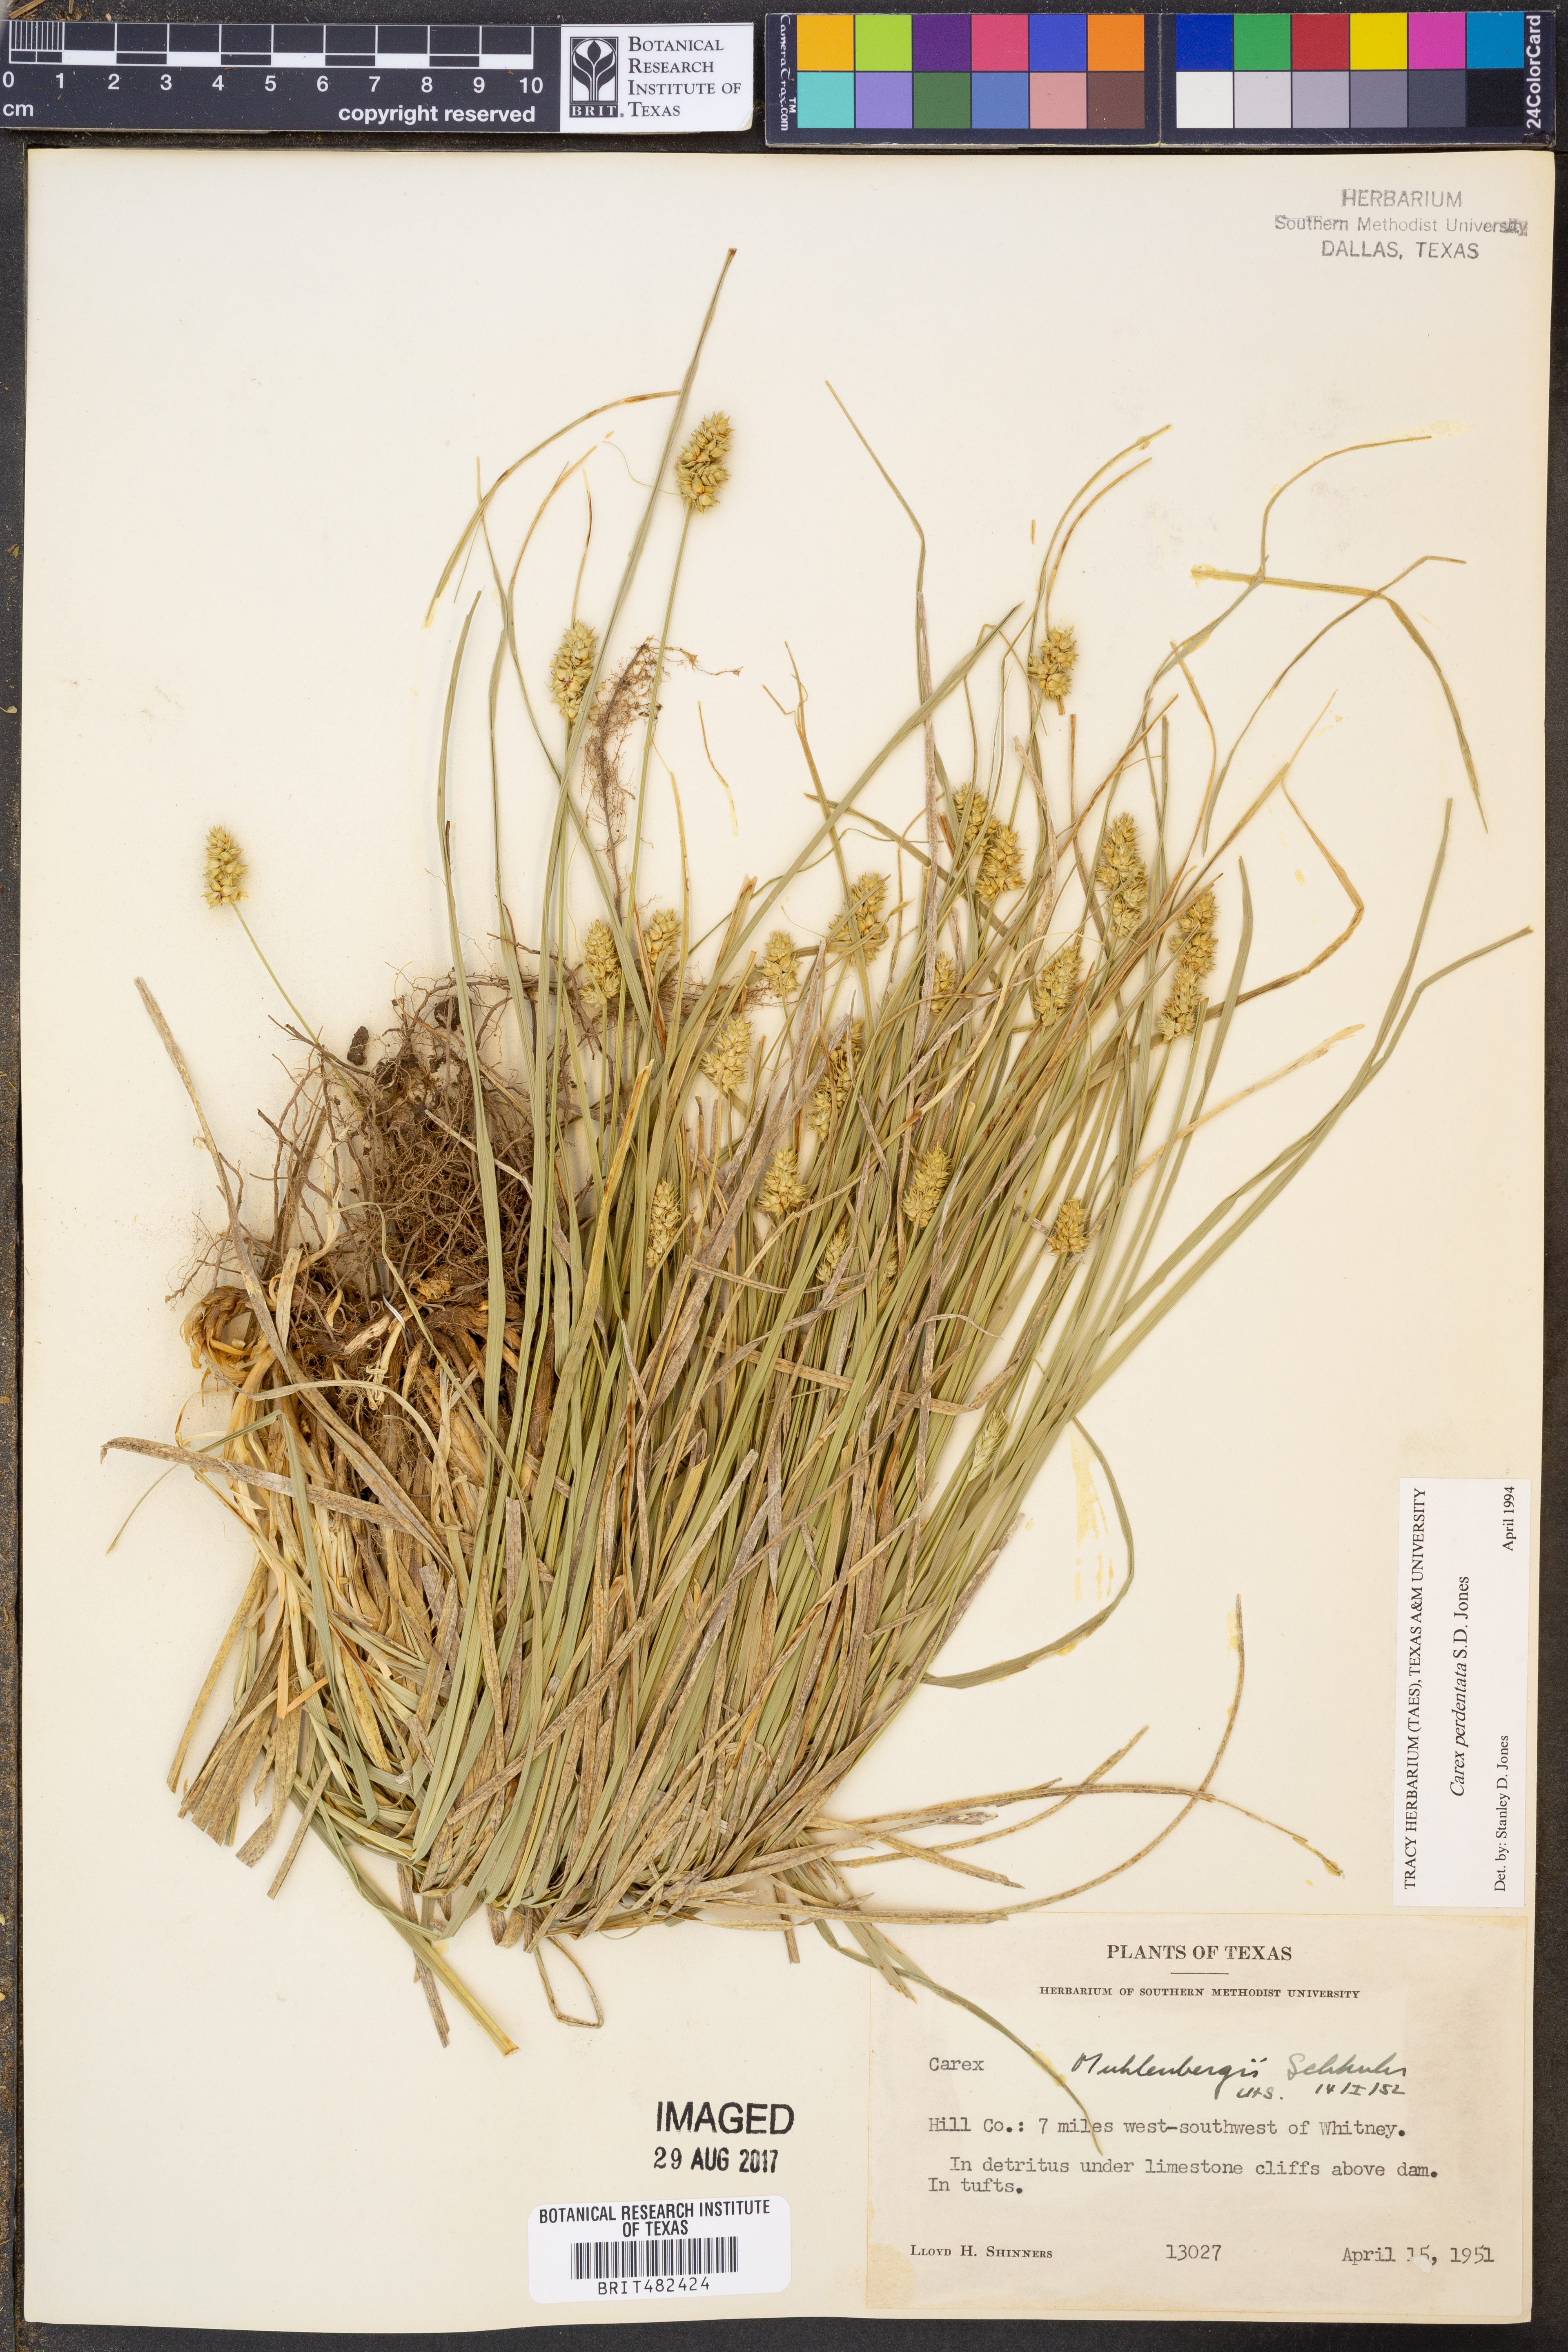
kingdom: Plantae
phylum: Tracheophyta
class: Liliopsida
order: Poales
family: Cyperaceae
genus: Carex
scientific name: Carex perdentata
